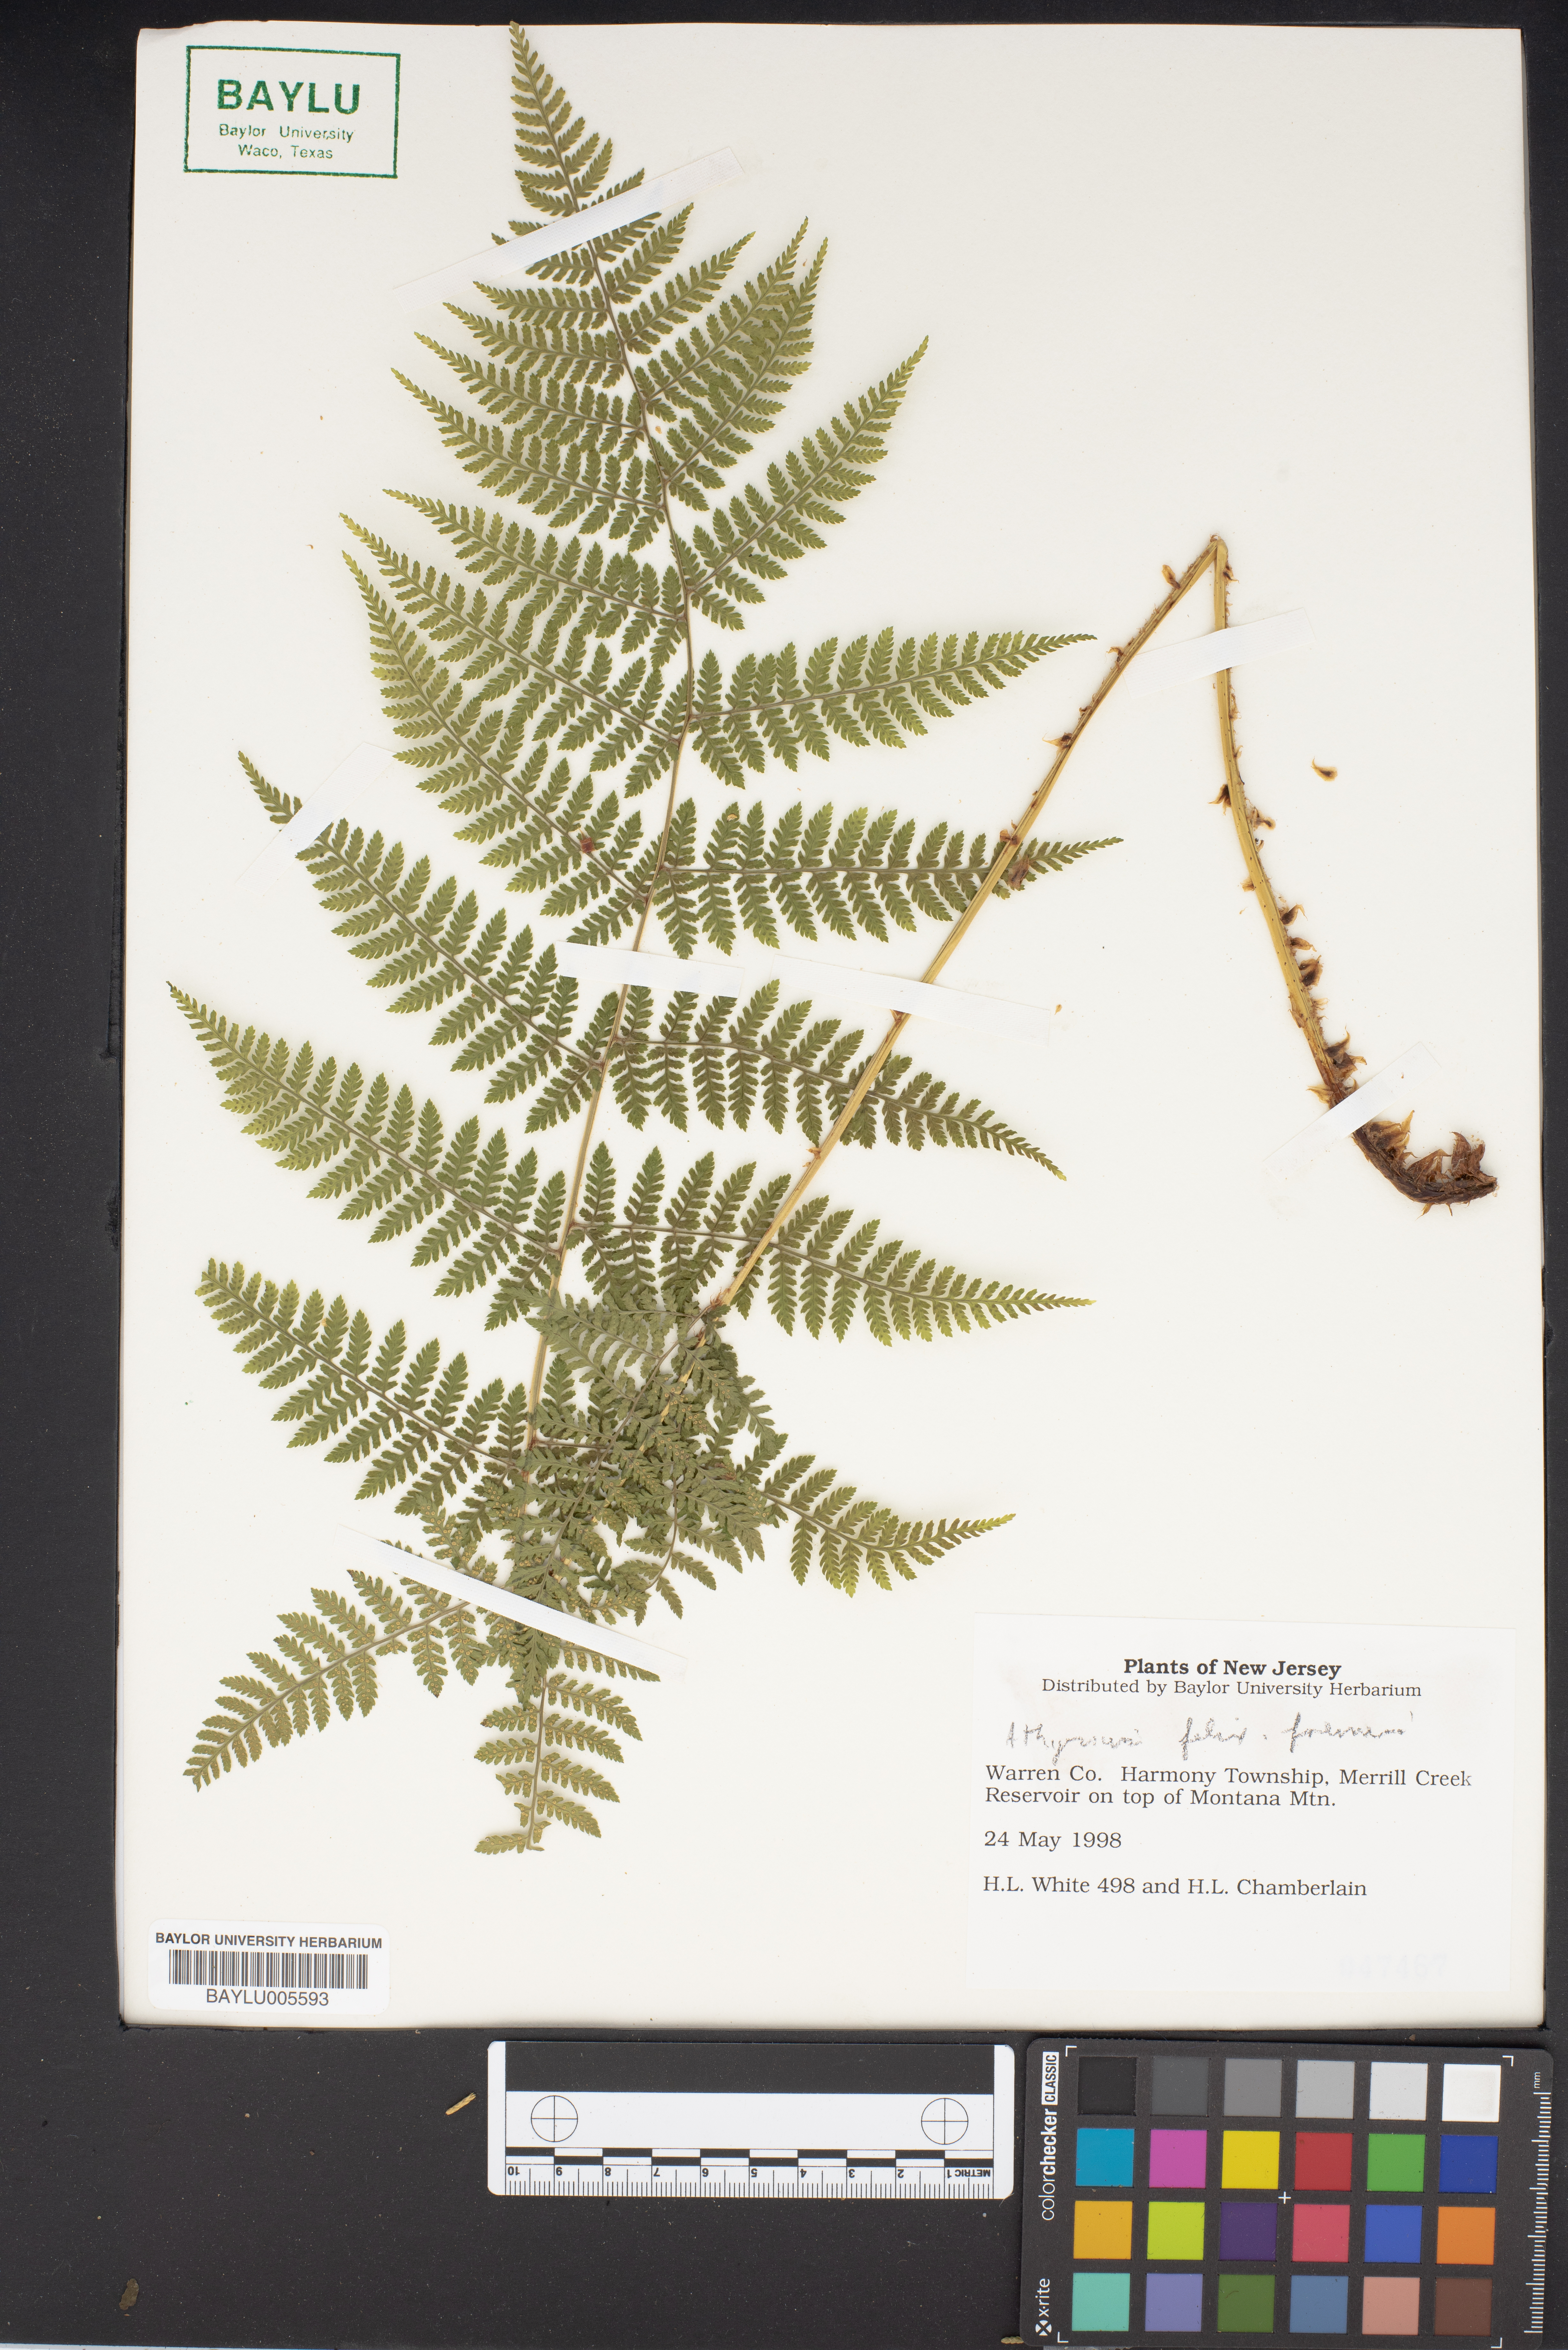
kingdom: Plantae
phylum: Tracheophyta
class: Polypodiopsida
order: Polypodiales
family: Athyriaceae
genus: Athyrium
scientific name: Athyrium filix-femina
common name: Lady fern
